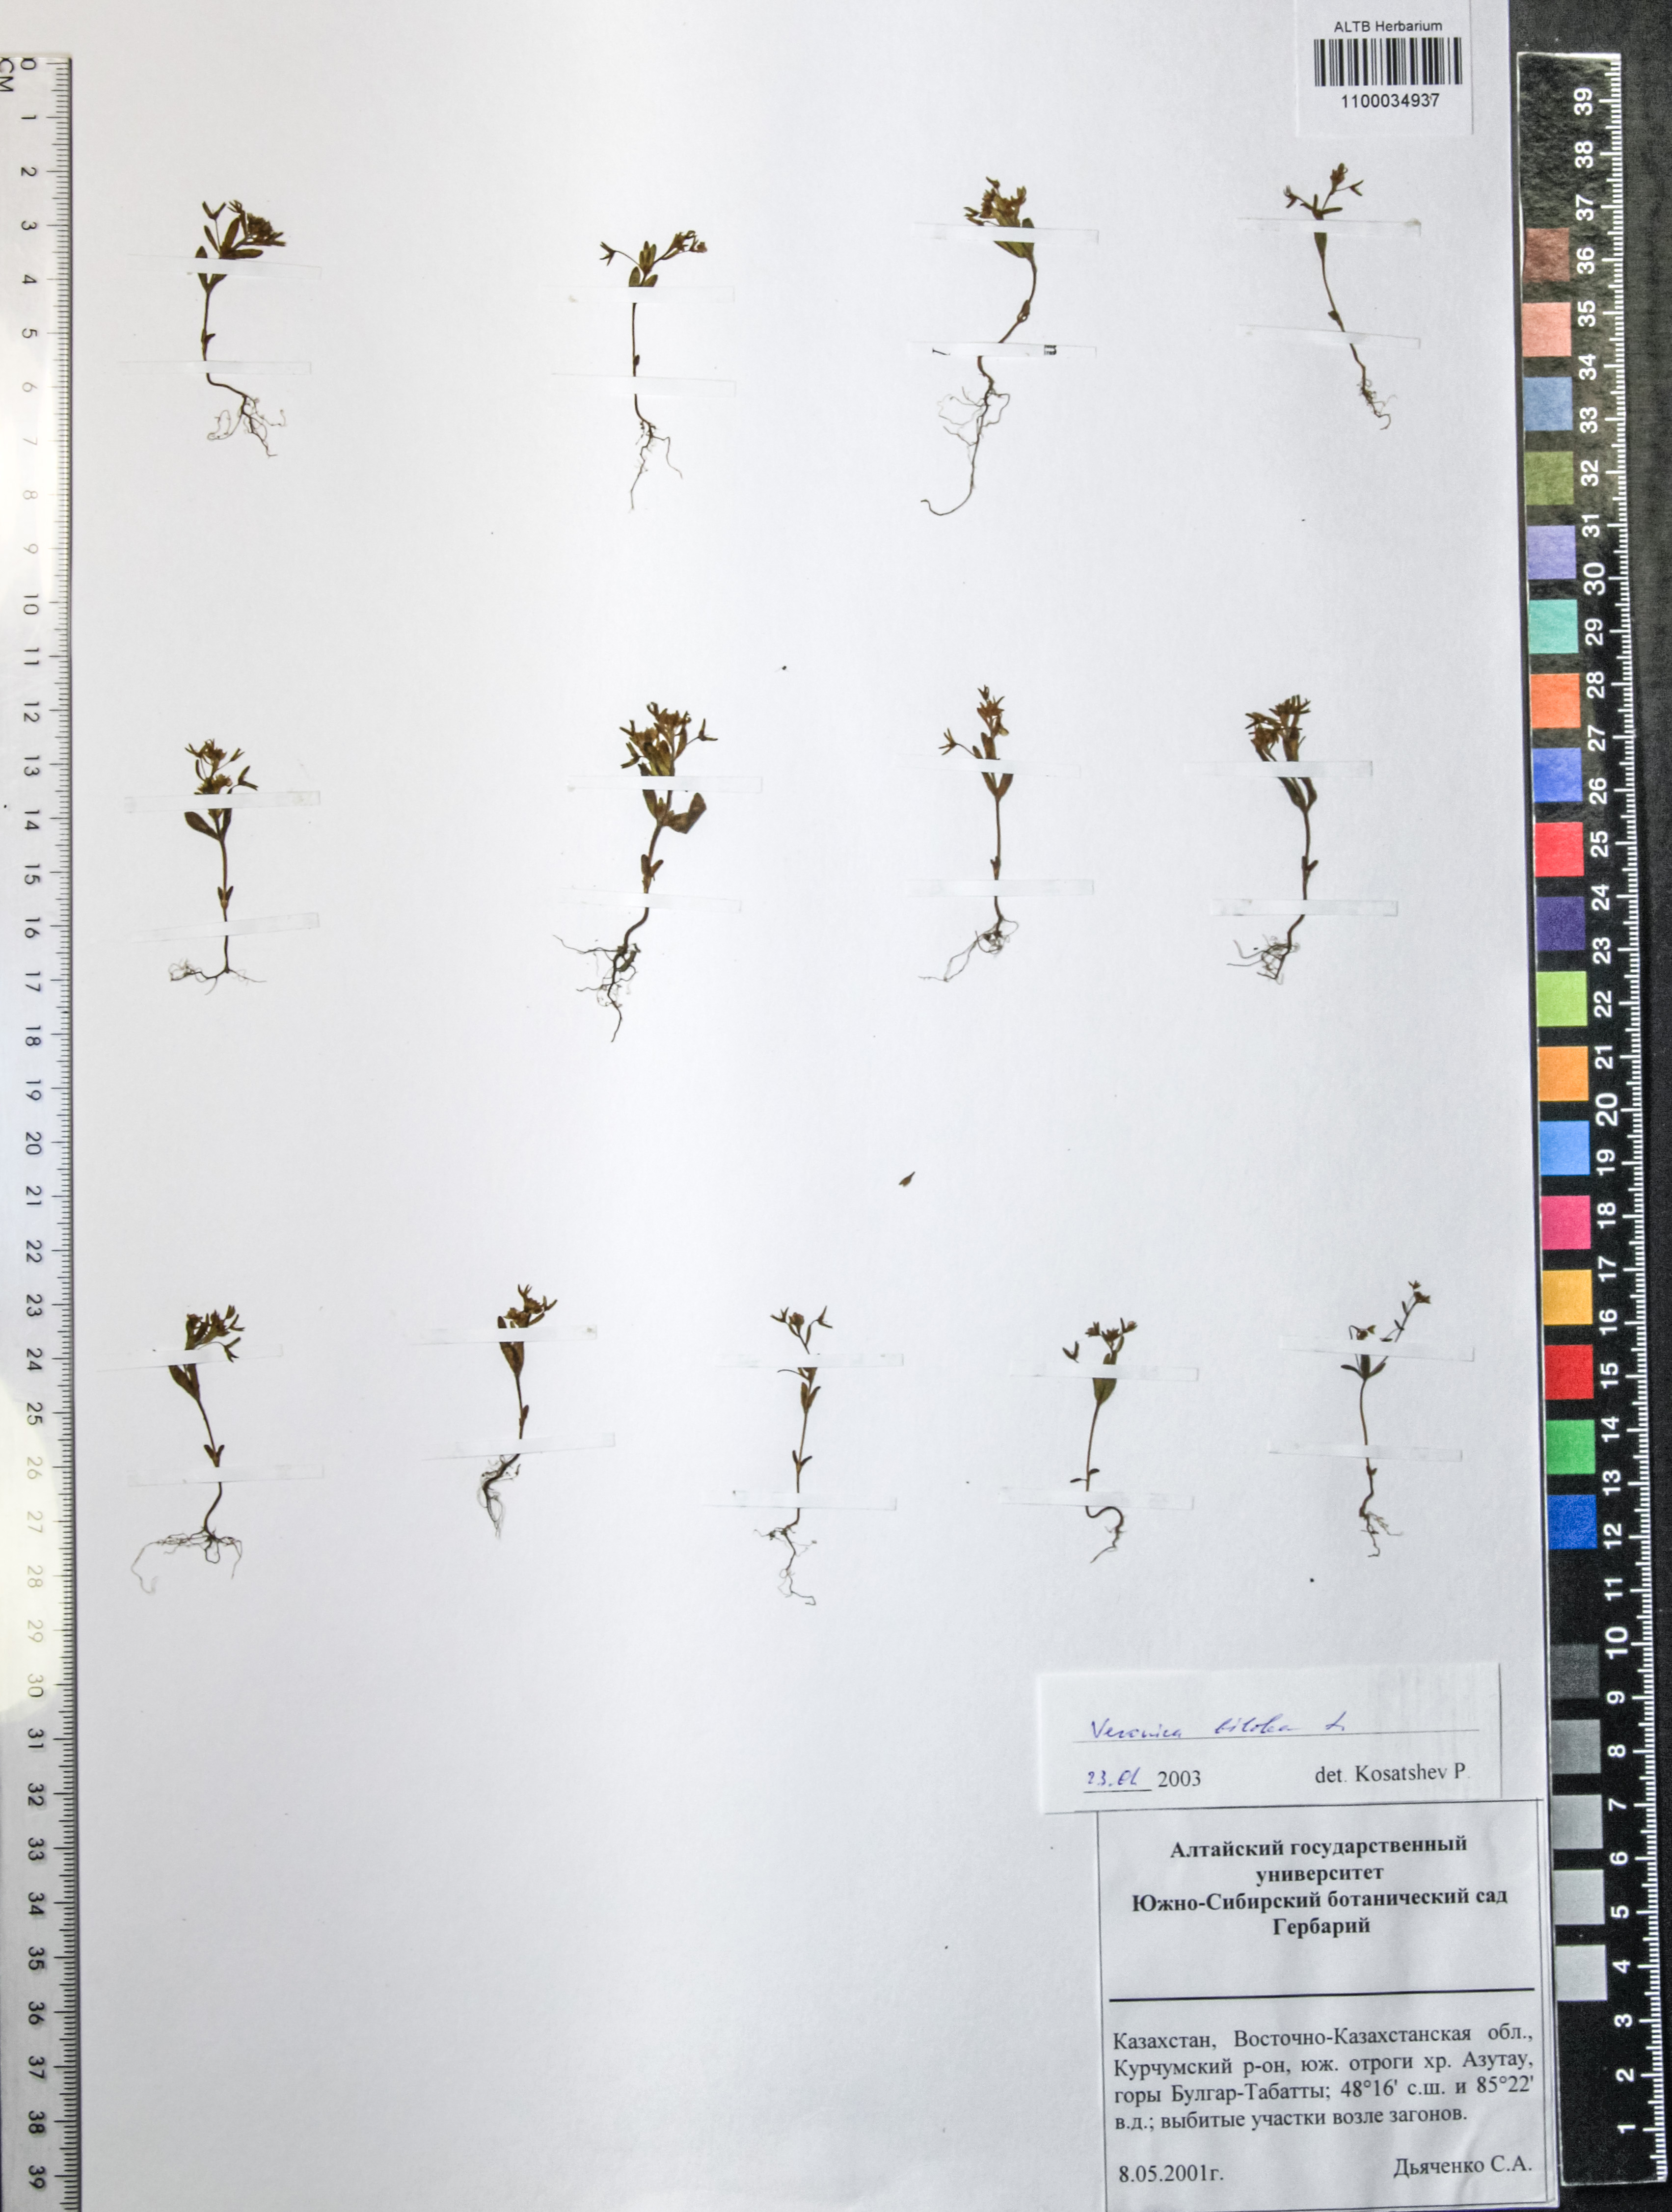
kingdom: Plantae
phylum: Tracheophyta
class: Magnoliopsida
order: Lamiales
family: Plantaginaceae
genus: Veronica
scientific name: Veronica biloba
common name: Twolobe speedwell
